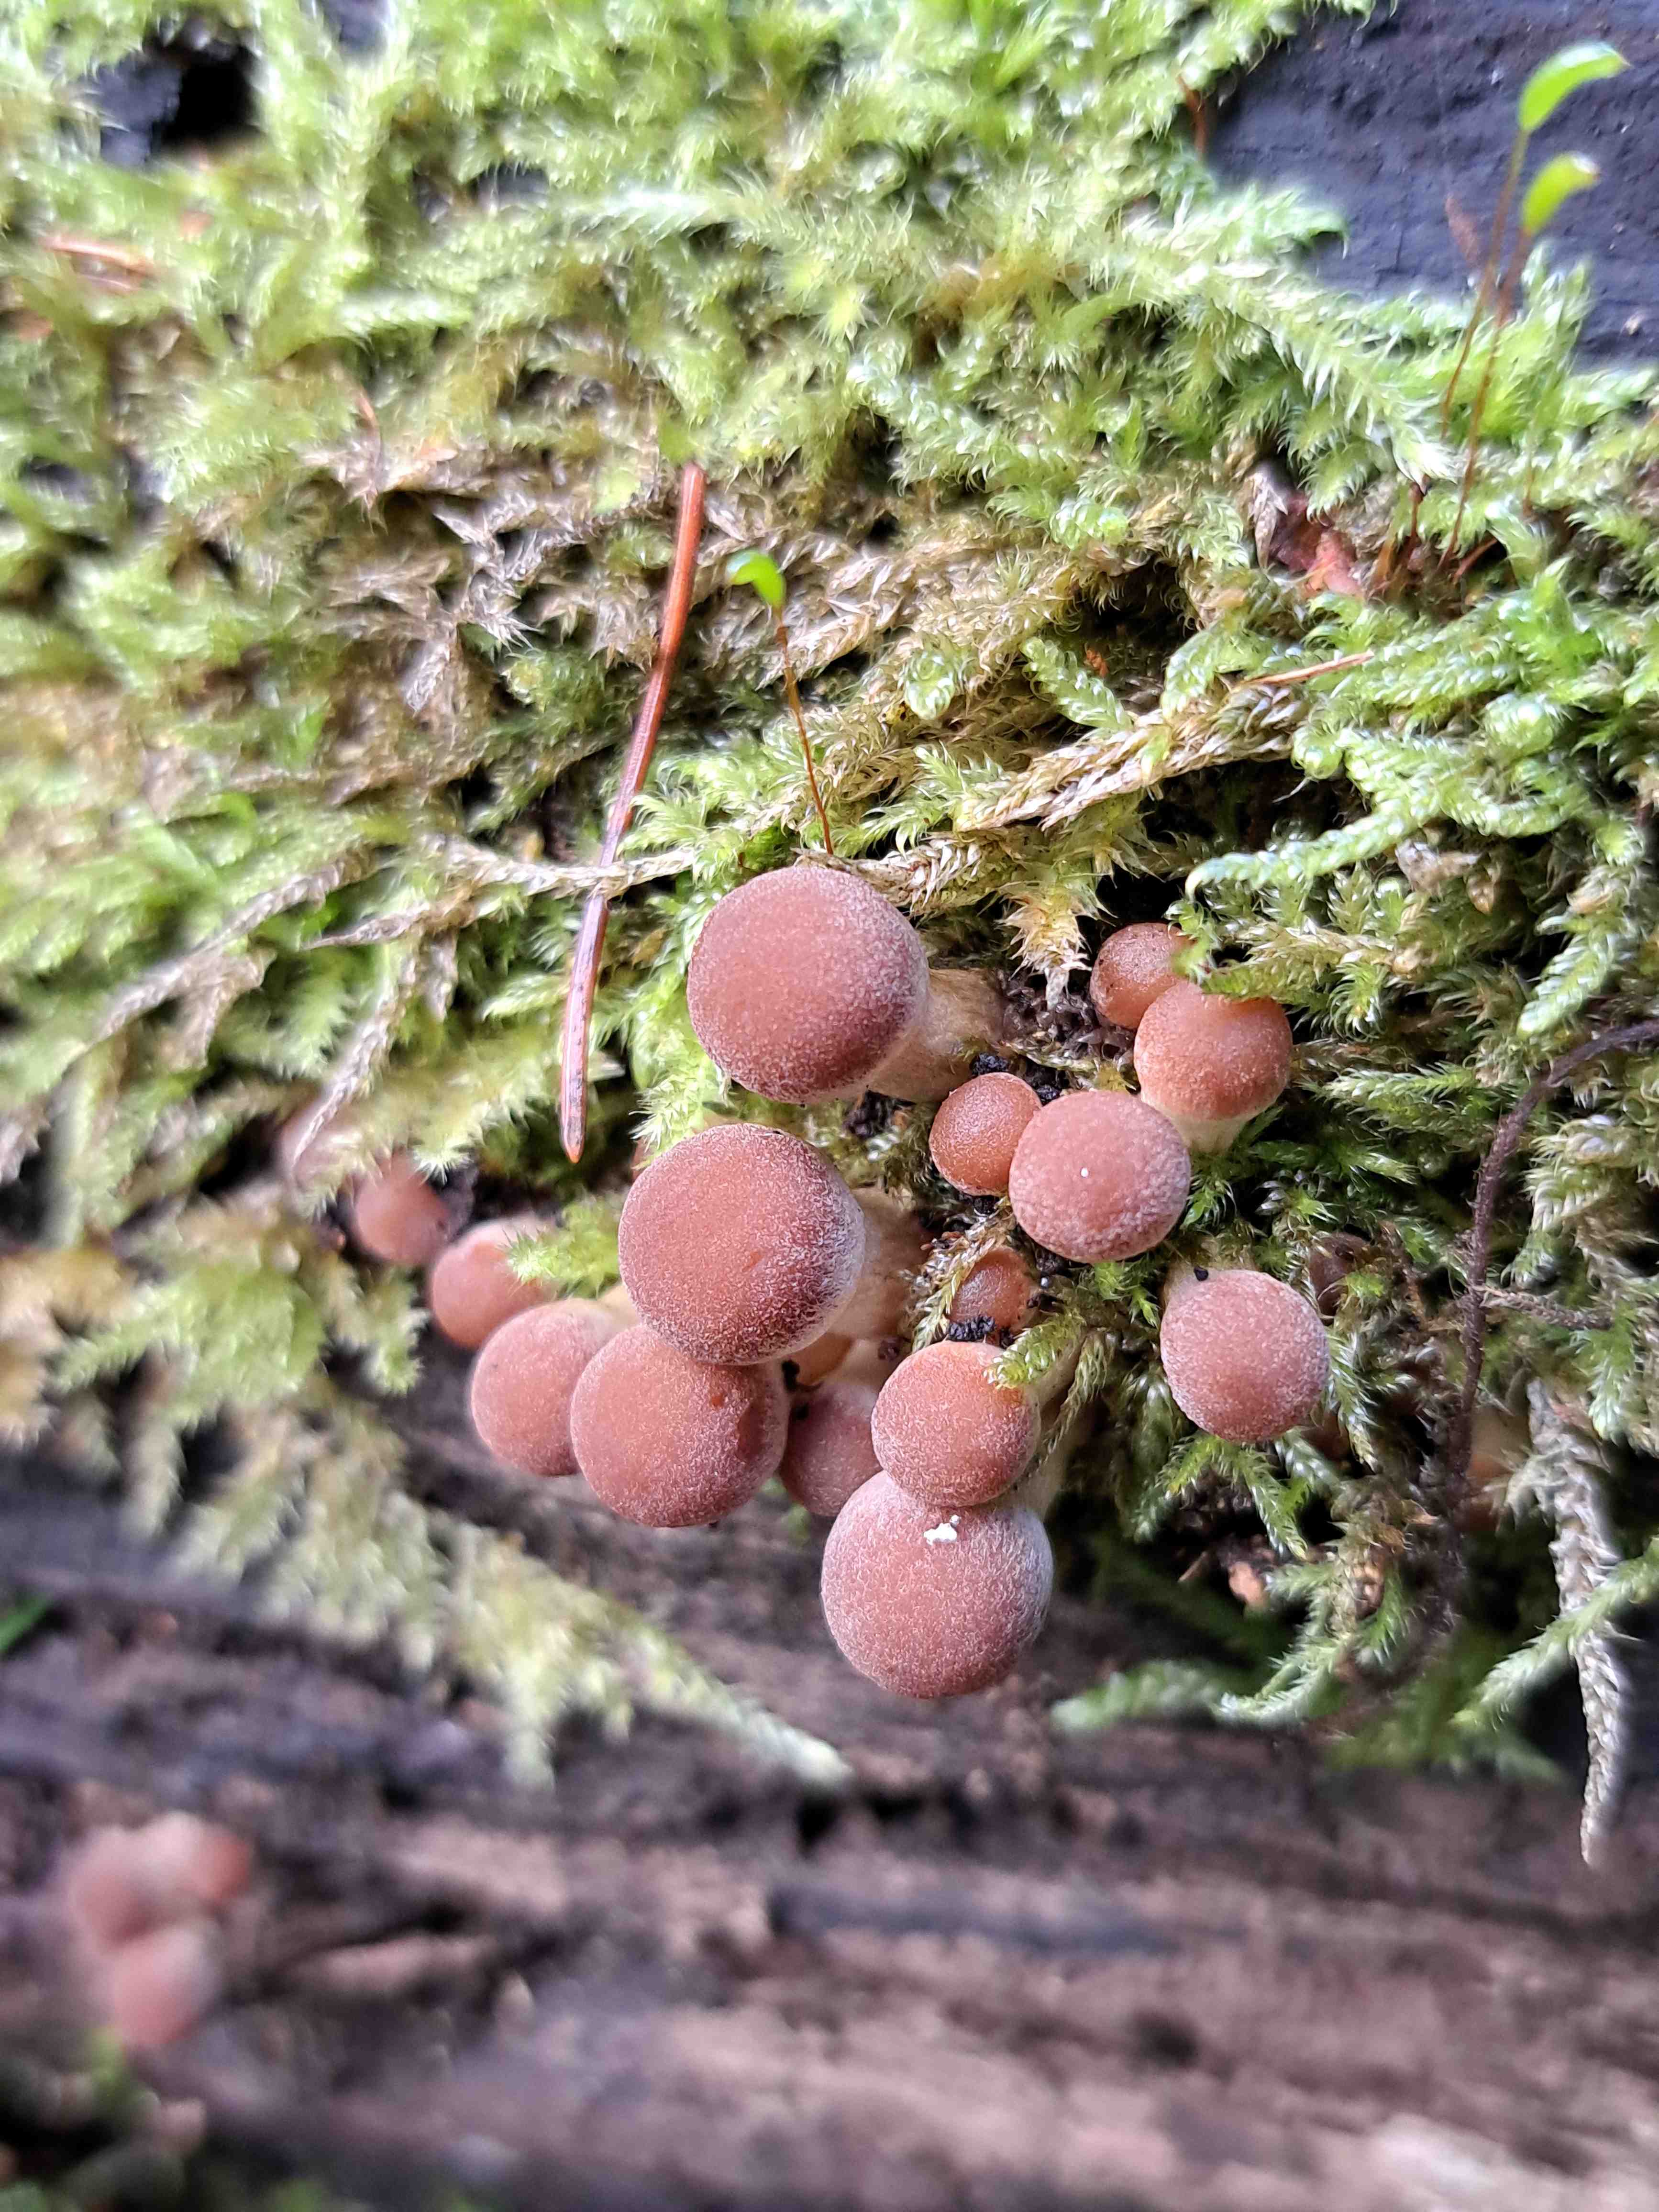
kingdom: Fungi
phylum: Basidiomycota
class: Agaricomycetes
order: Agaricales
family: Psathyrellaceae
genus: Psathyrella
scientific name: Psathyrella
